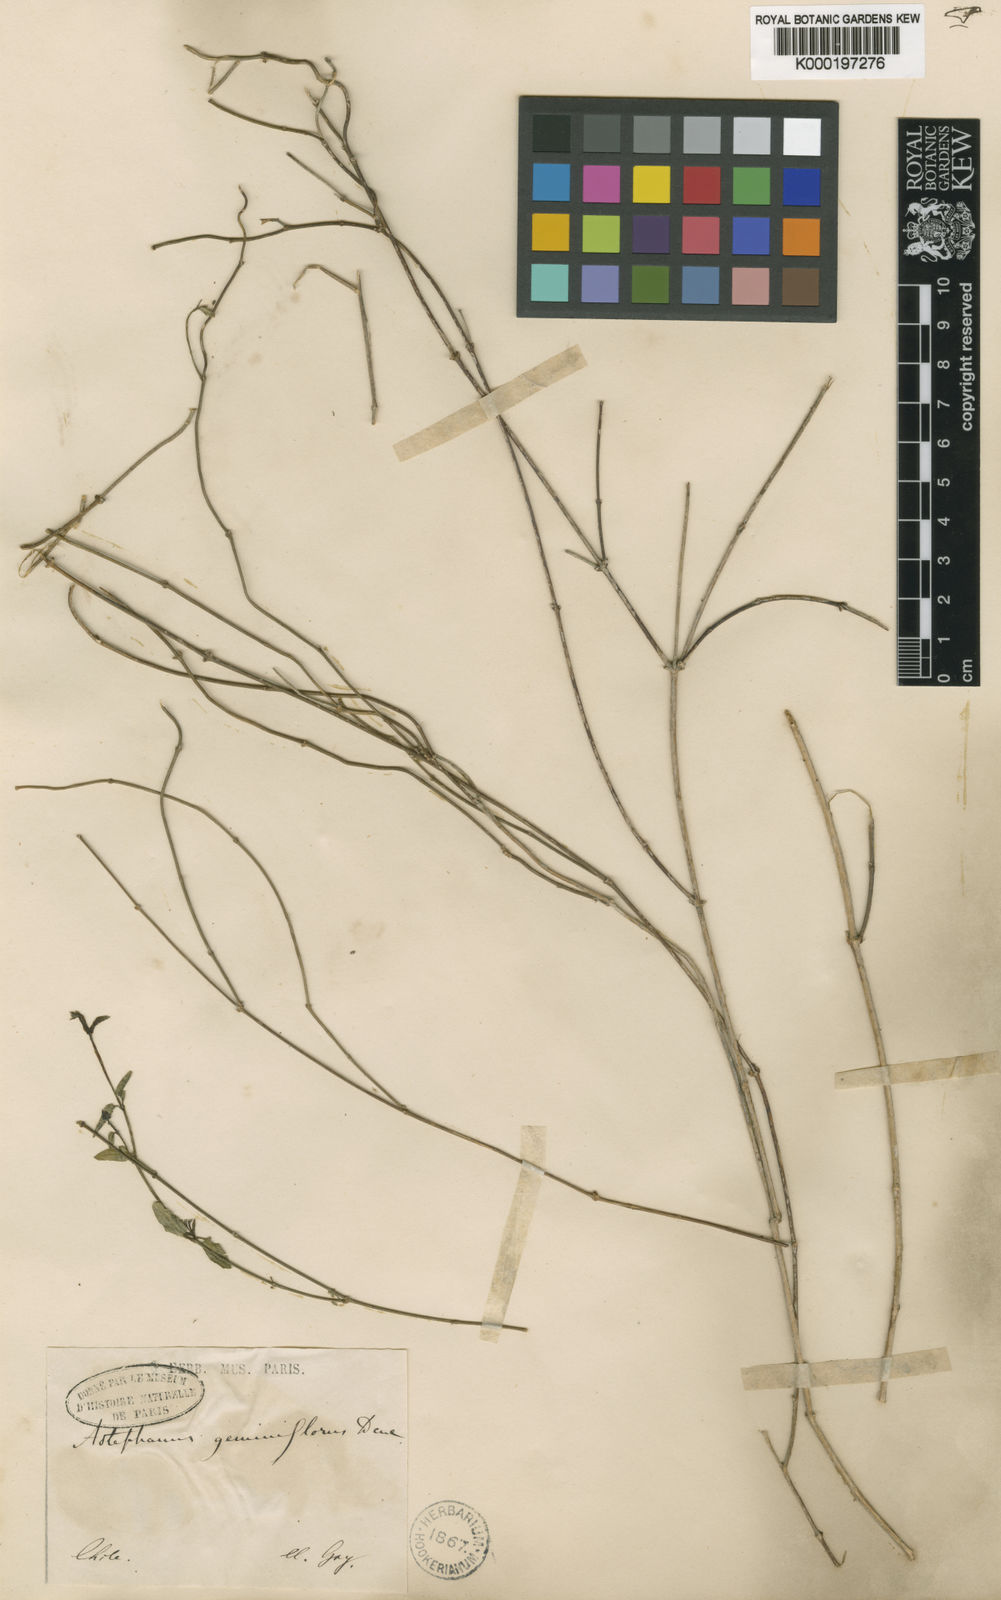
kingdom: Plantae
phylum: Tracheophyta
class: Magnoliopsida
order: Gentianales
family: Apocynaceae
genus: Diplolepis
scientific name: Diplolepis geminiflora
